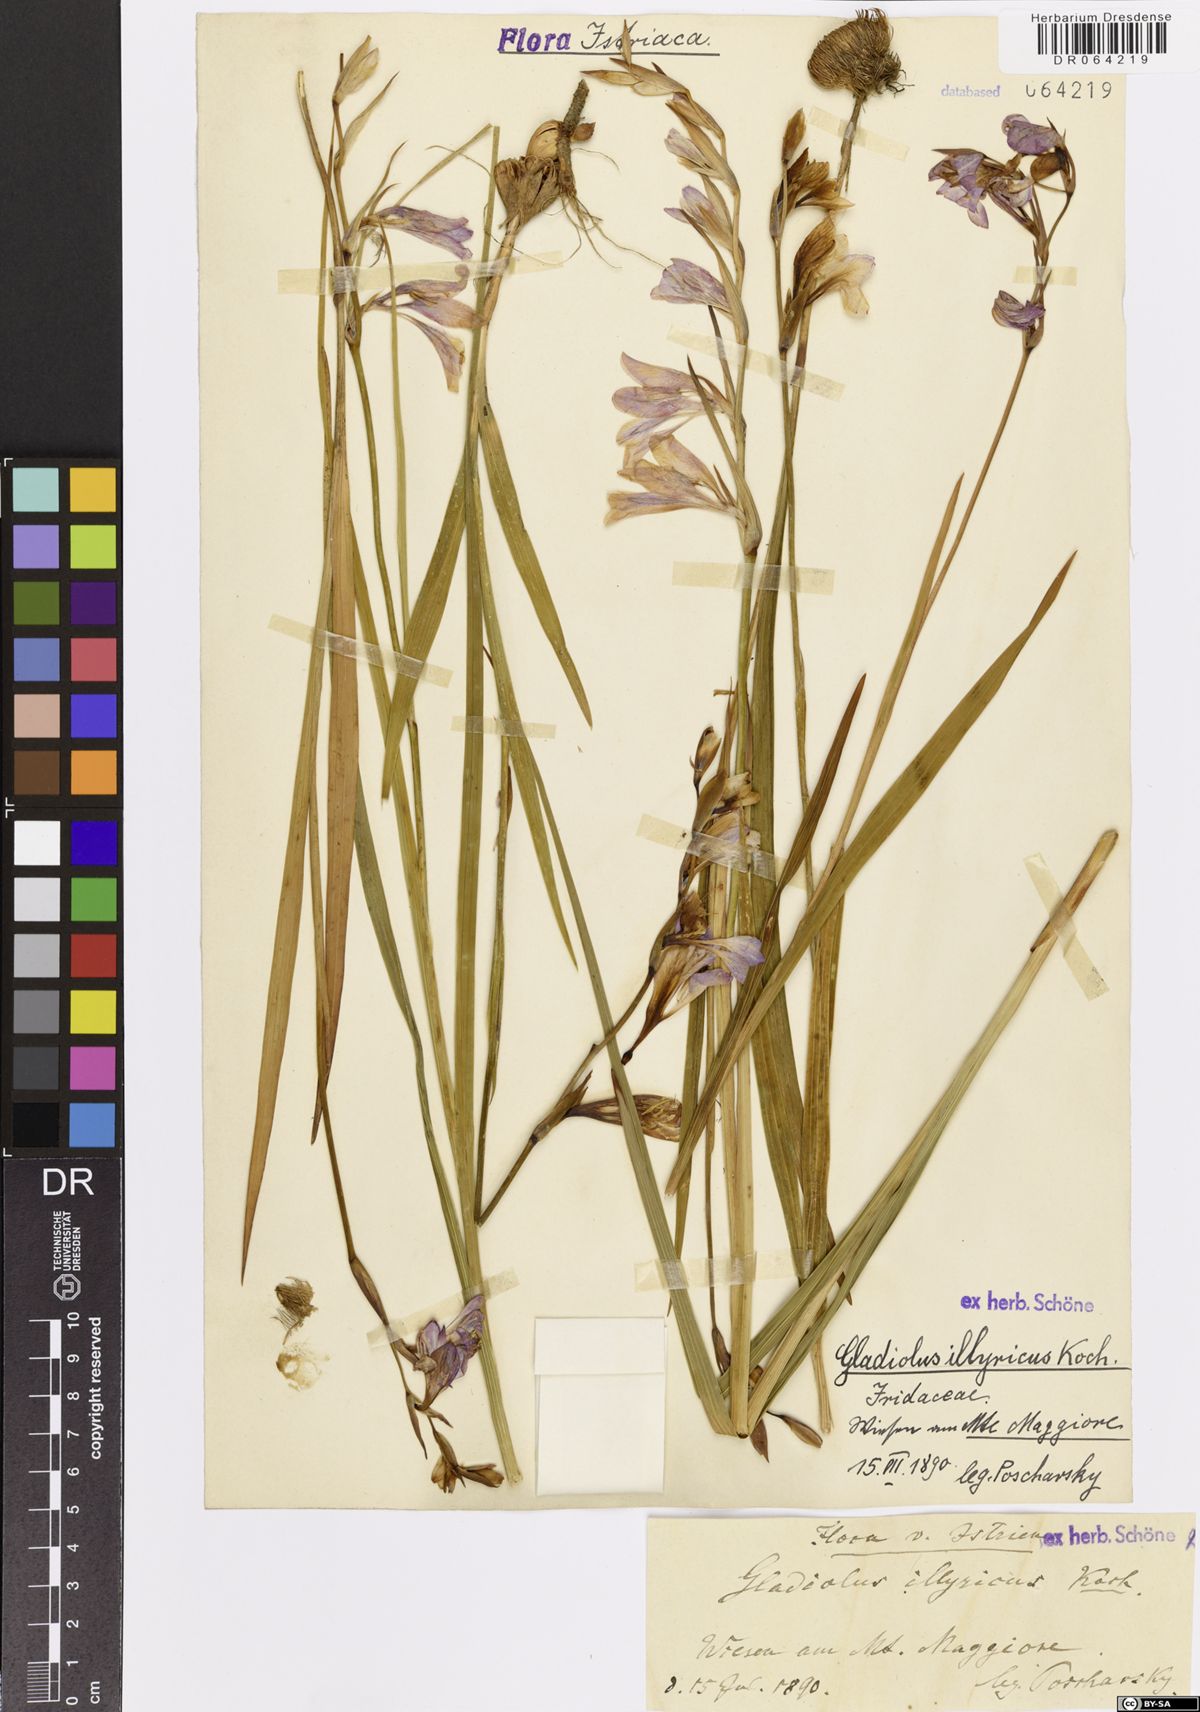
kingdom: Plantae
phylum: Tracheophyta
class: Liliopsida
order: Asparagales
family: Iridaceae
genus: Gladiolus
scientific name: Gladiolus illyricus
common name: Wild gladiolus
